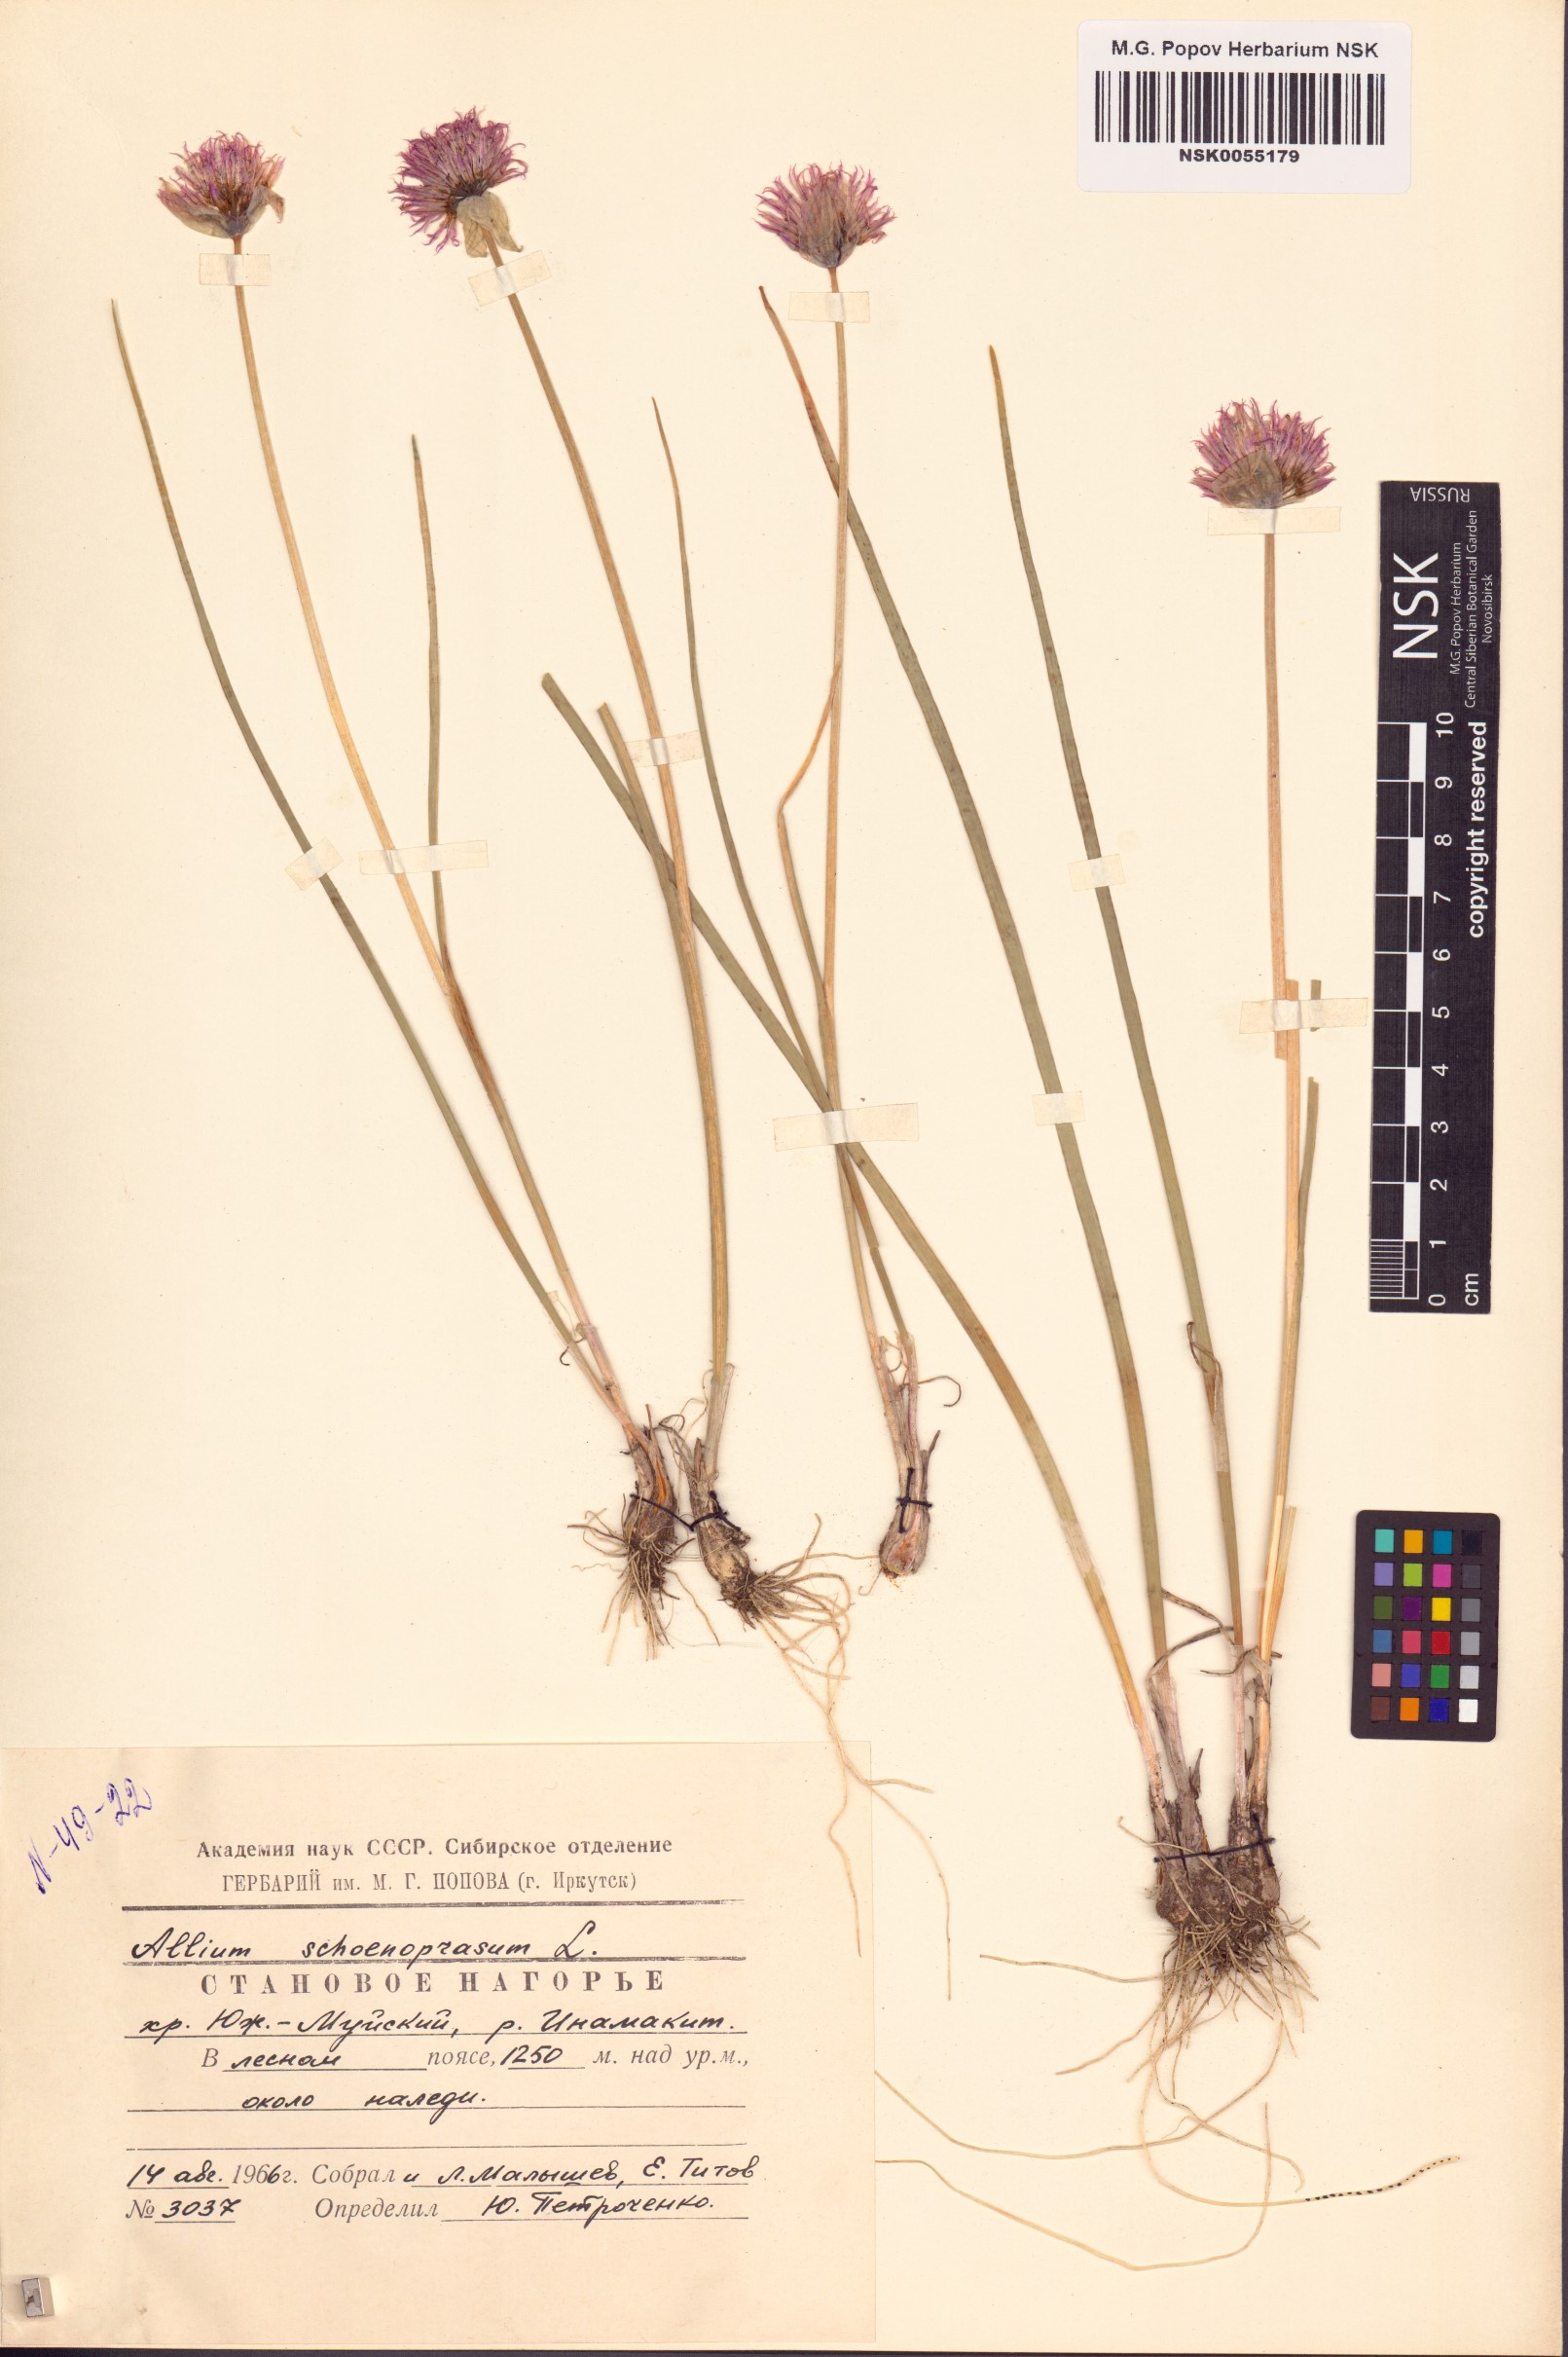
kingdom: Plantae
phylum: Tracheophyta
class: Liliopsida
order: Asparagales
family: Amaryllidaceae
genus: Allium
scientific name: Allium schoenoprasum
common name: Chives
